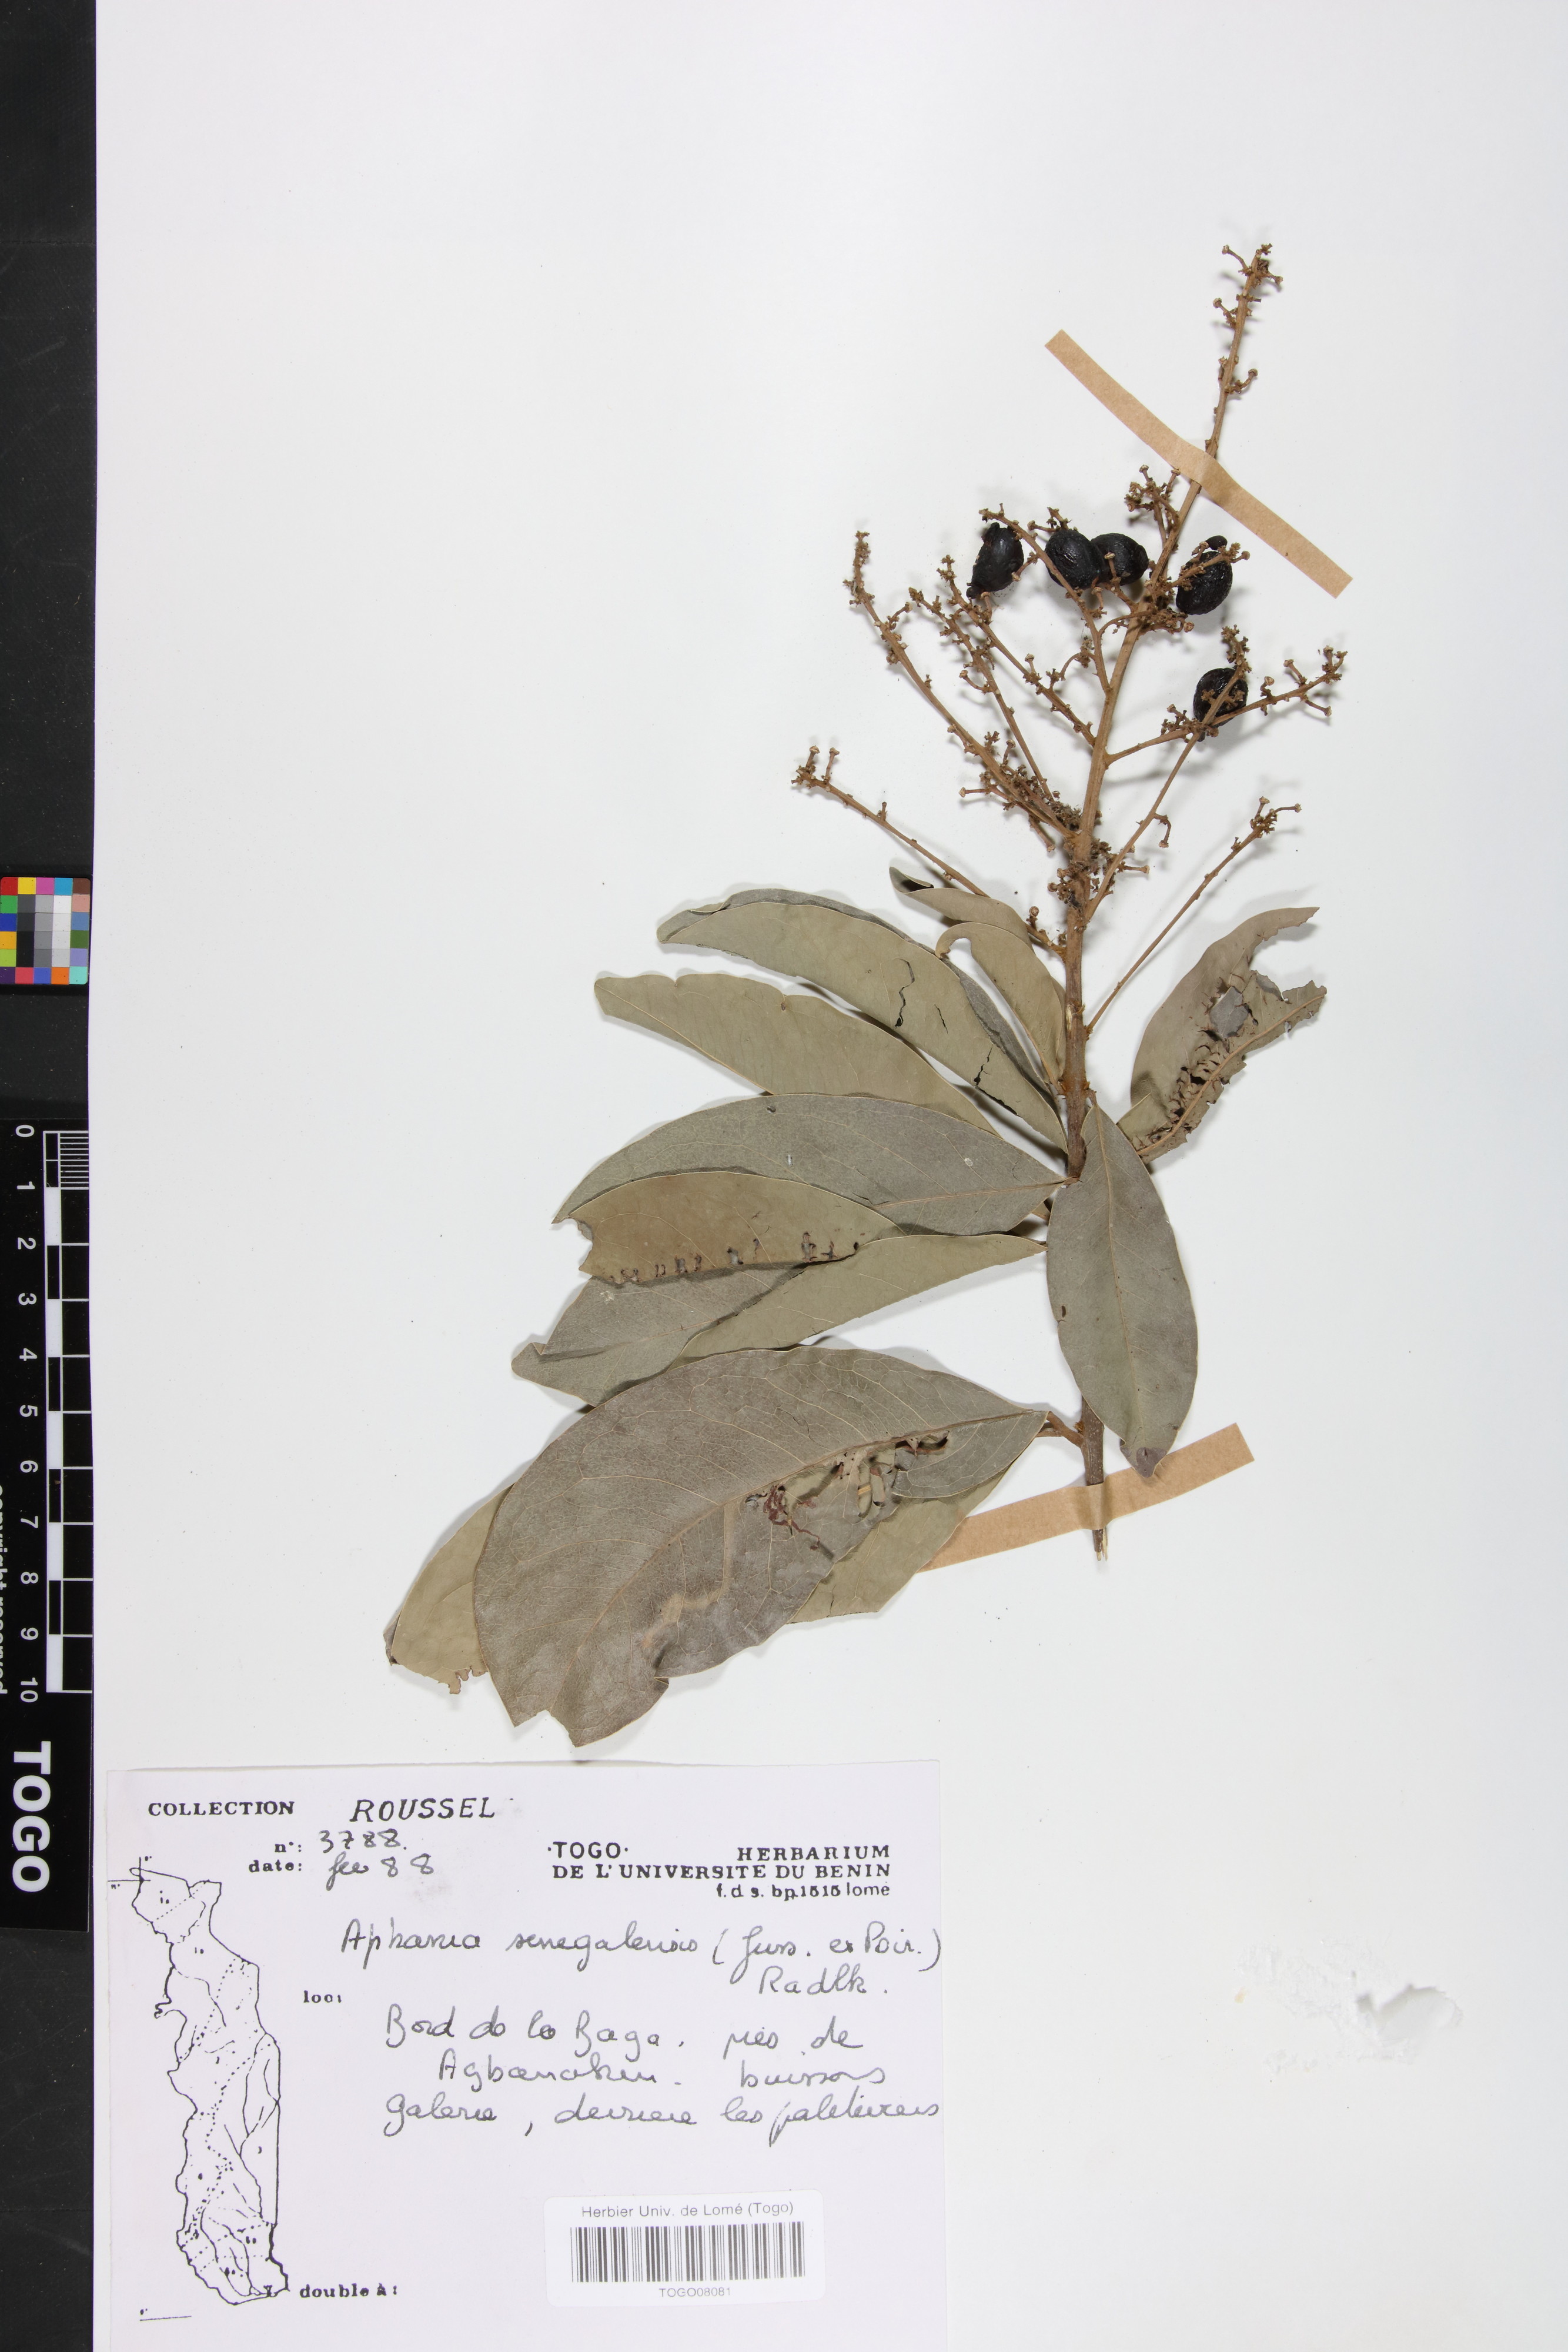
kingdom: Plantae
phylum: Tracheophyta
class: Magnoliopsida
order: Sapindales
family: Sapindaceae
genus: Lepisanthes
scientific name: Lepisanthes senegalensis
